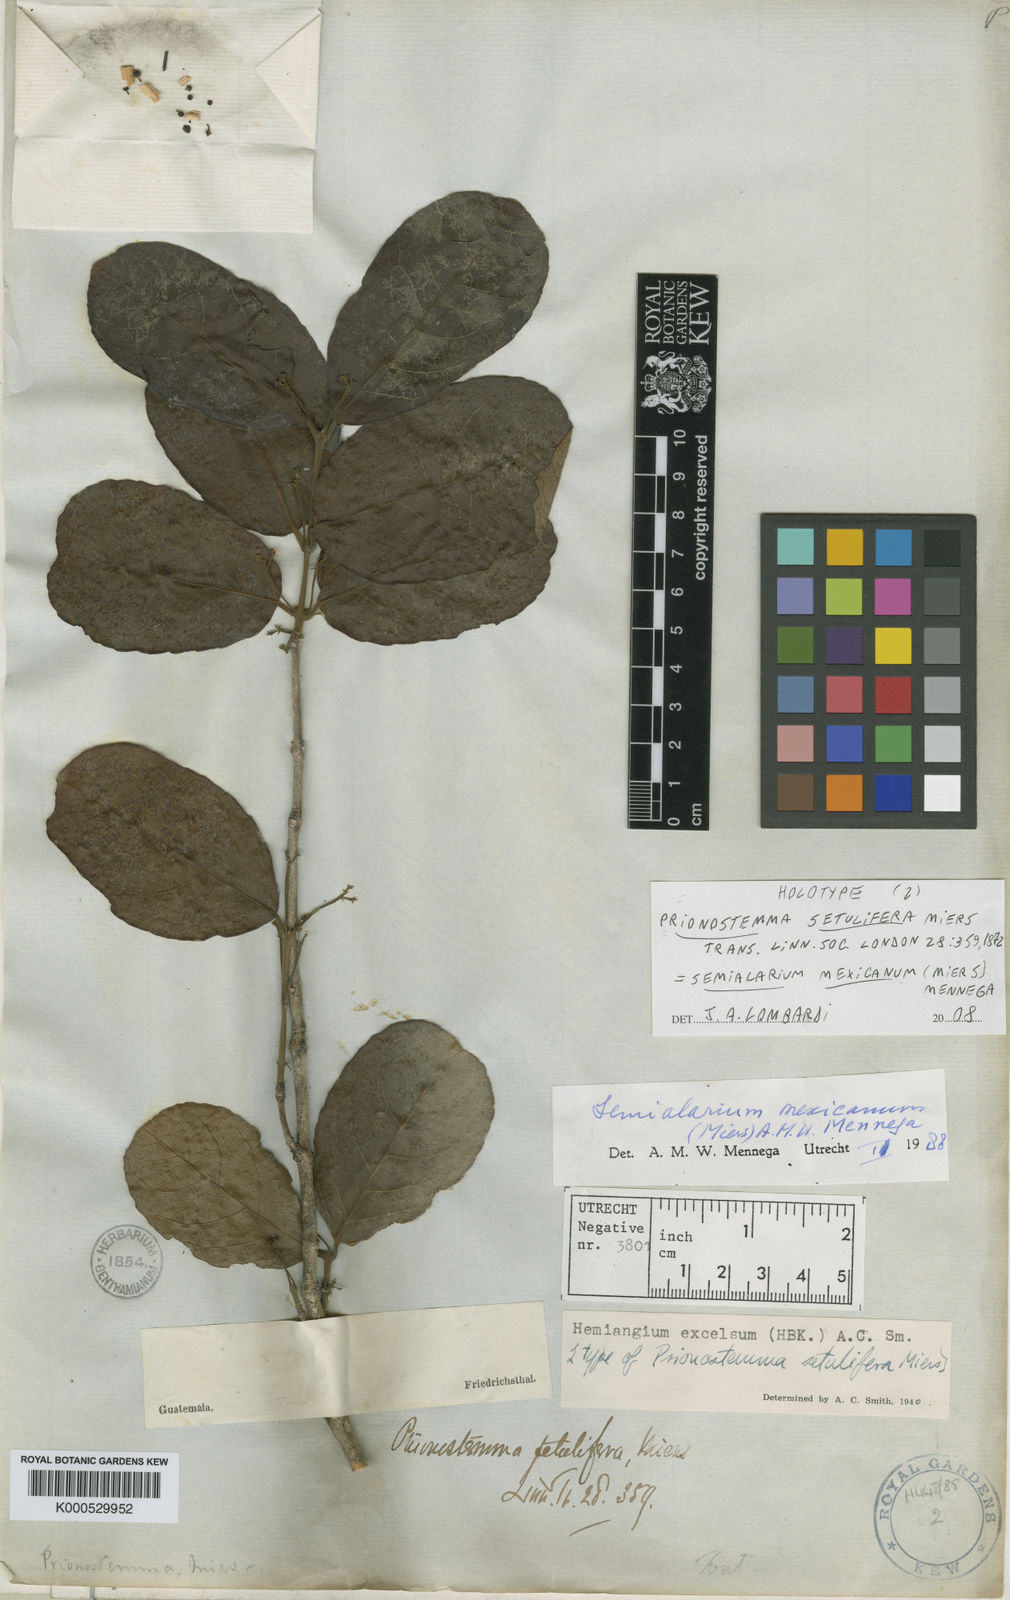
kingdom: Plantae
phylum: Tracheophyta
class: Magnoliopsida
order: Celastrales
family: Celastraceae
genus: Semialarium
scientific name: Semialarium mexicanum
